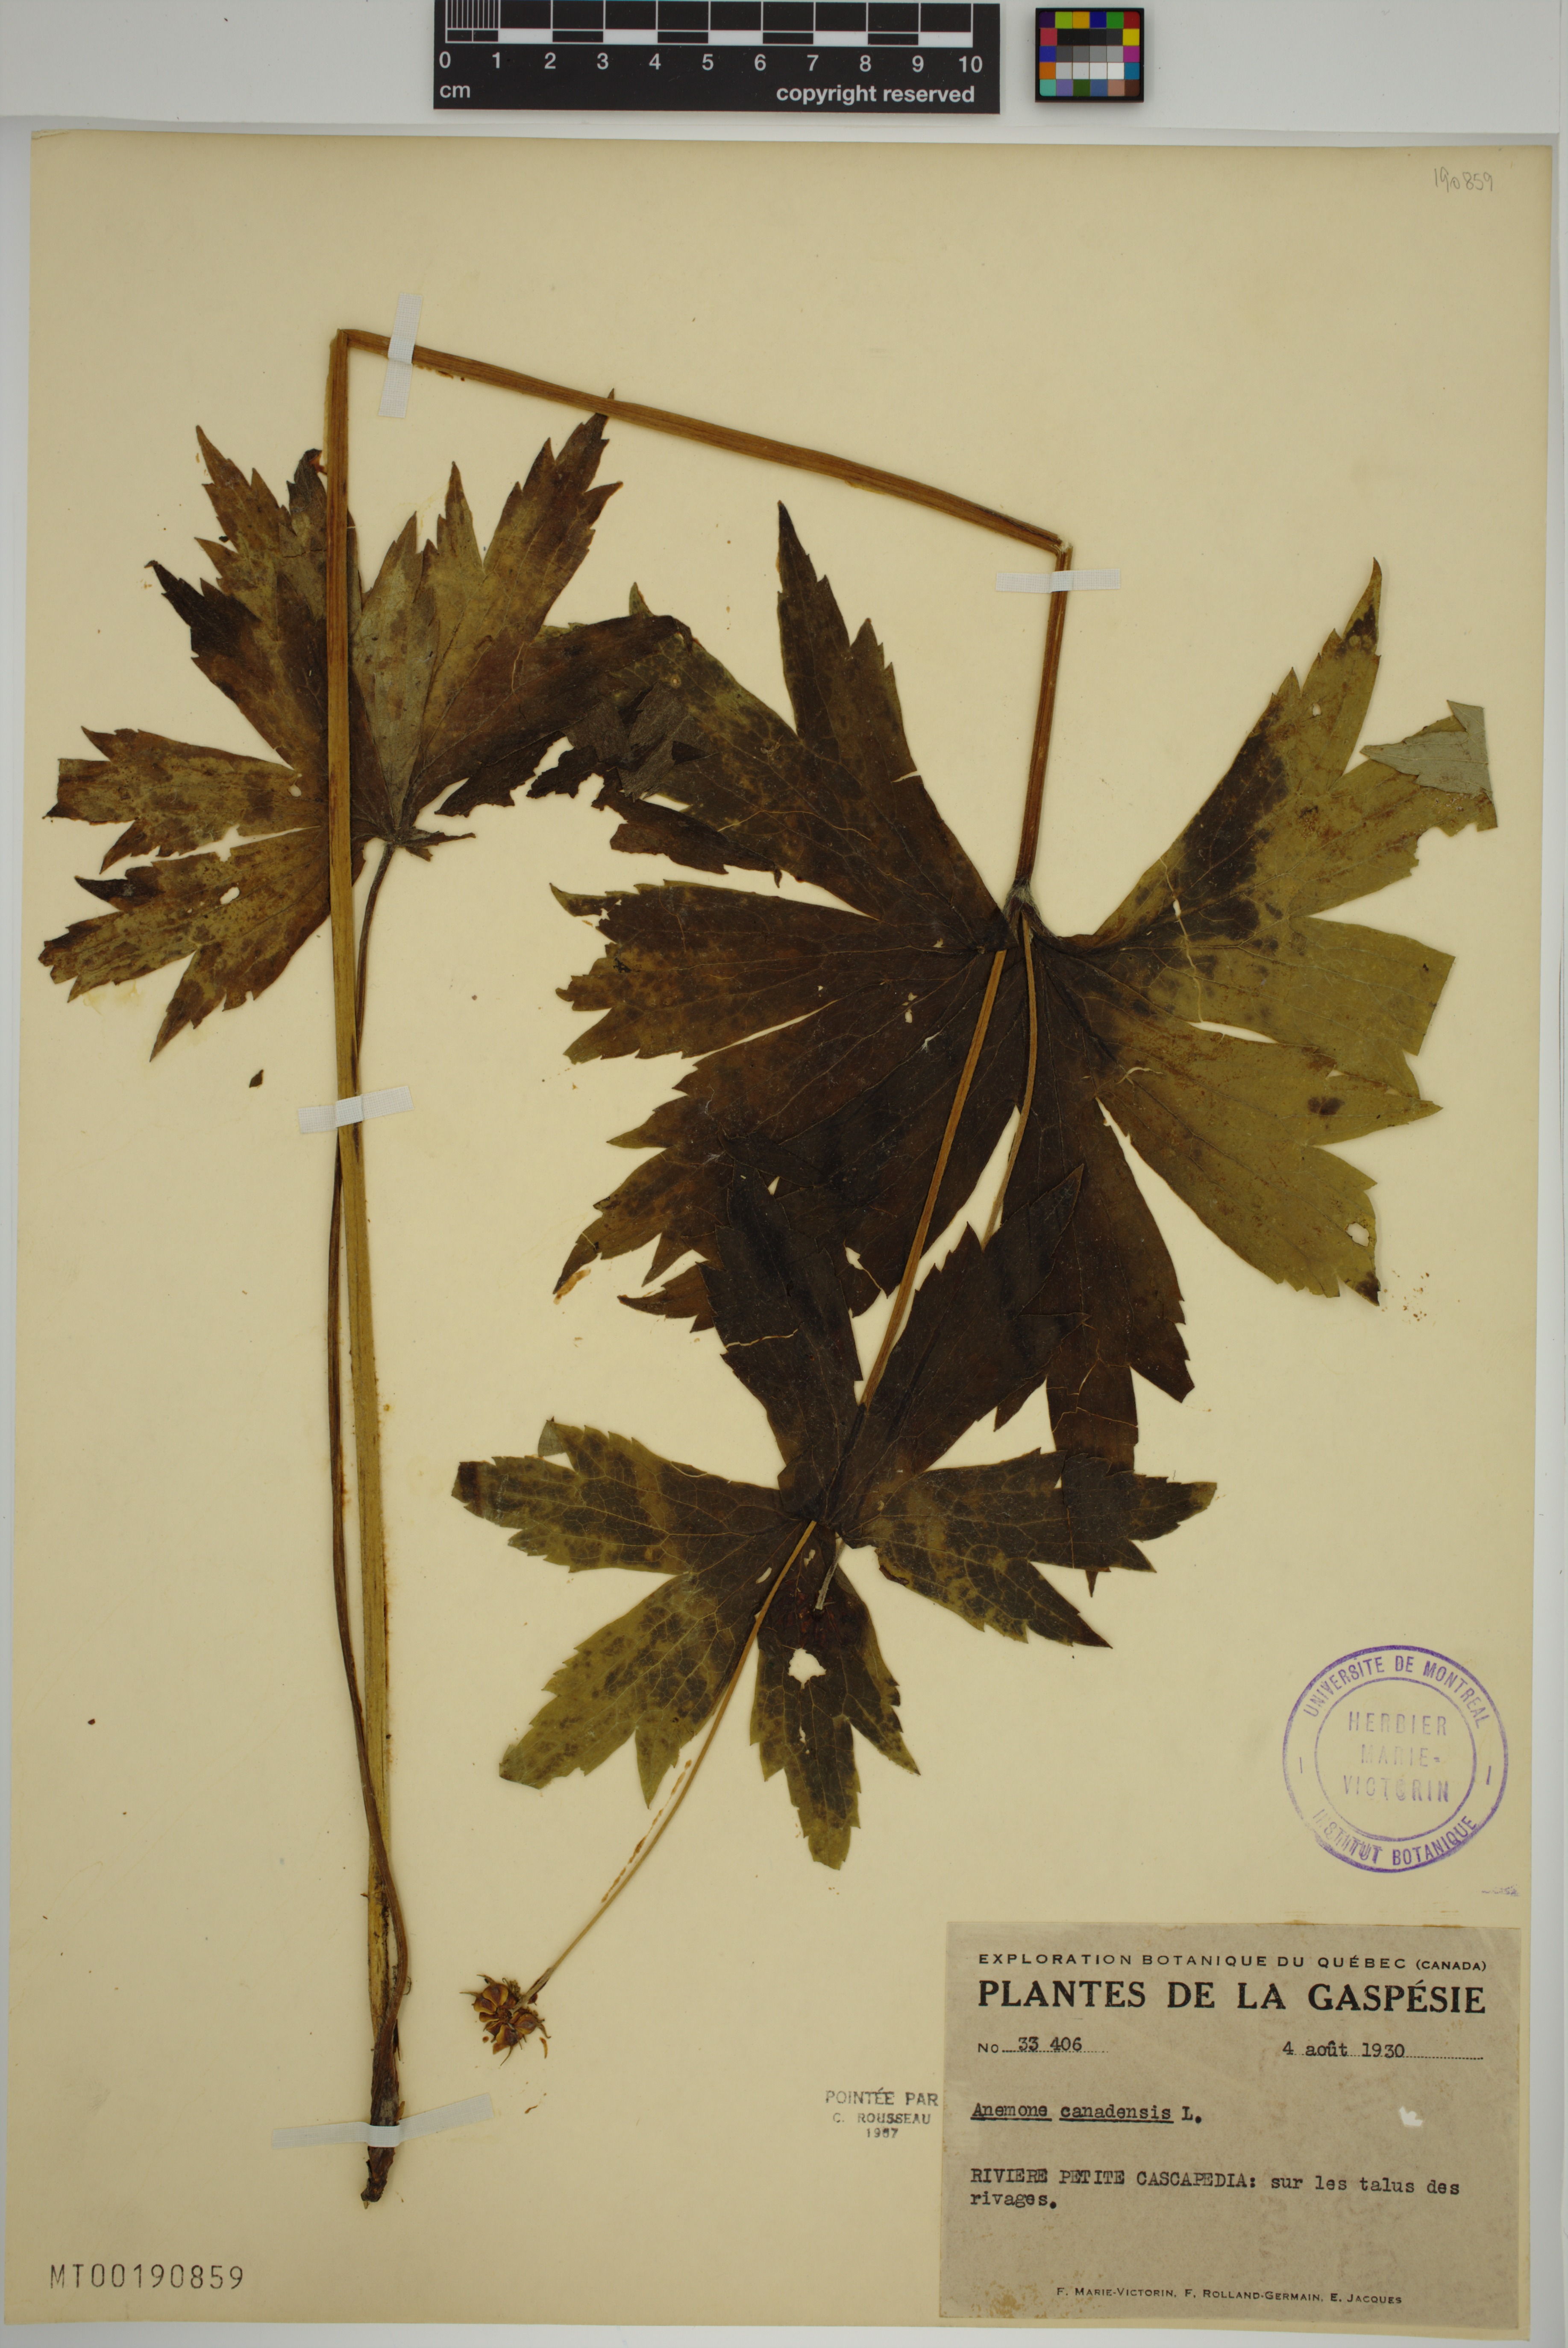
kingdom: Plantae
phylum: Tracheophyta
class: Magnoliopsida
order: Ranunculales
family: Ranunculaceae
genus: Anemonastrum
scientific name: Anemonastrum canadense
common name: Canada anemone
